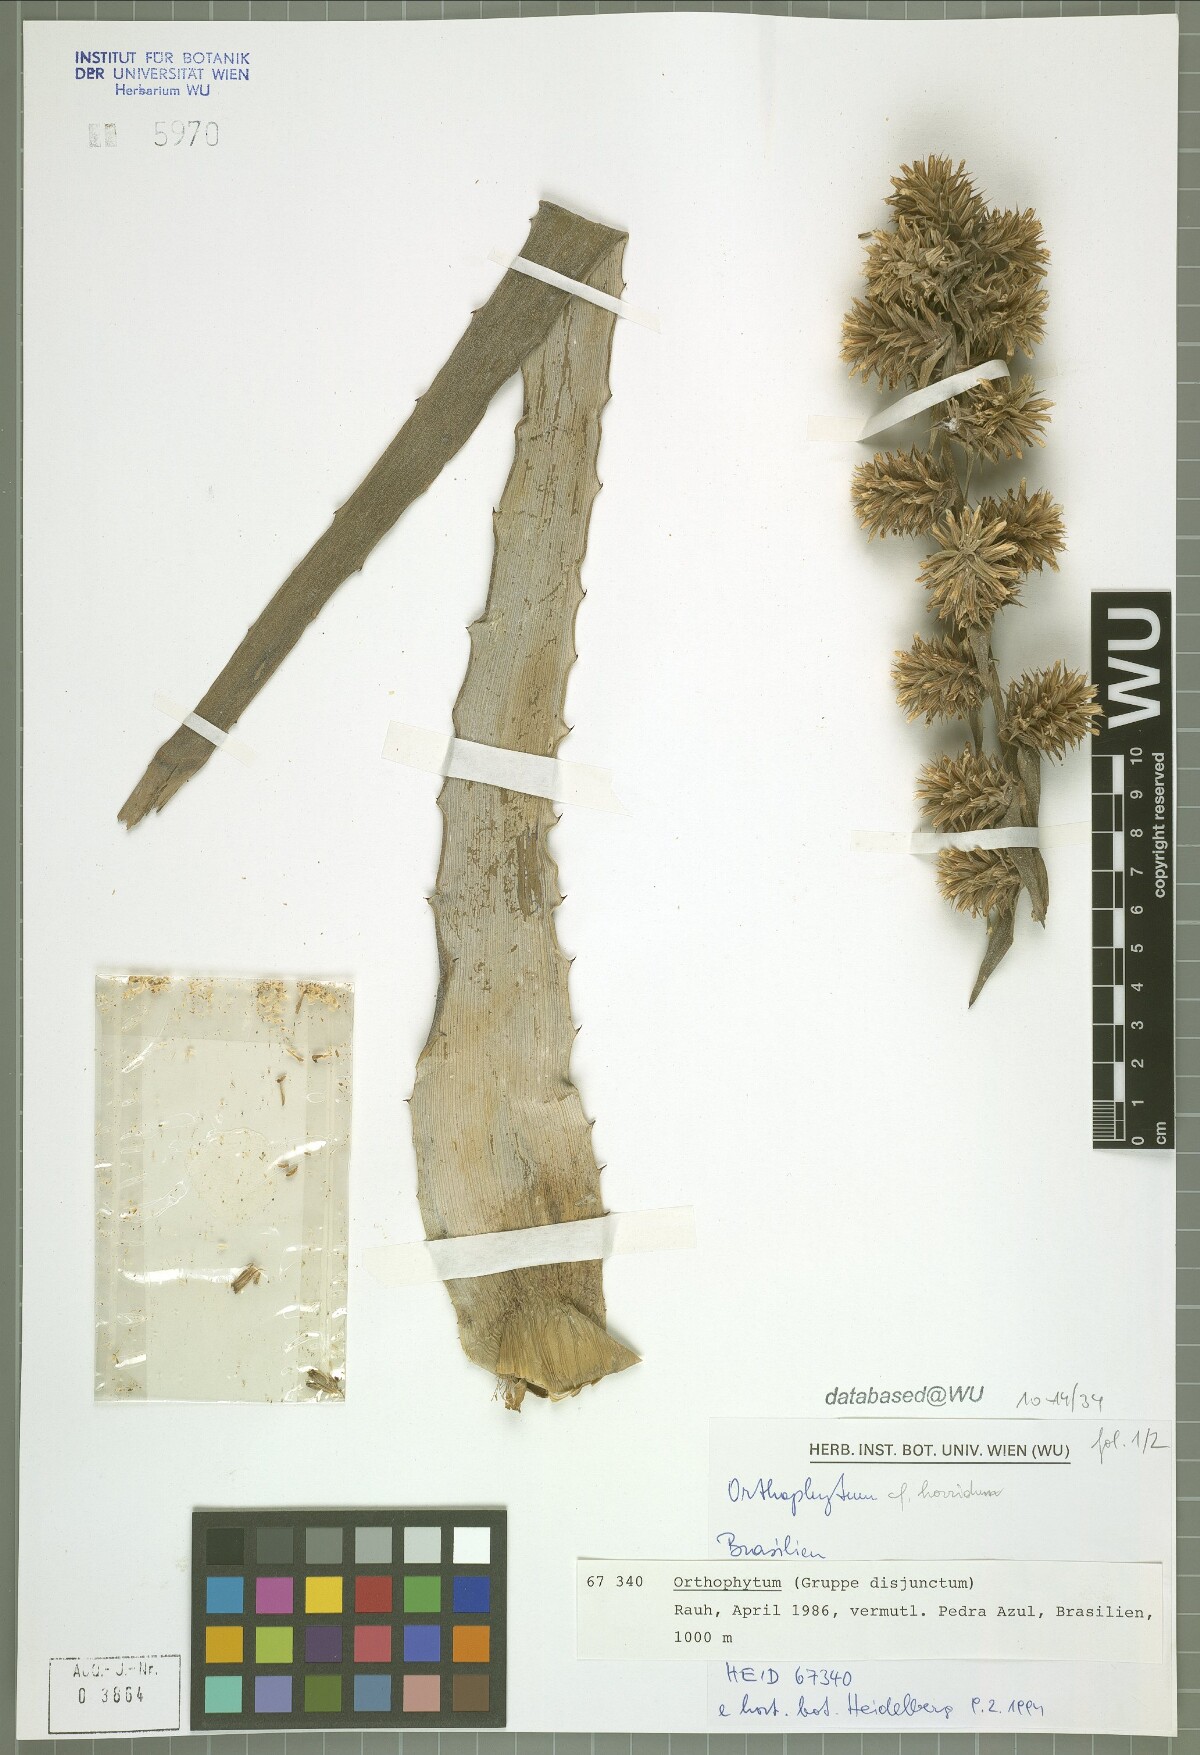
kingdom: Plantae
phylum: Tracheophyta
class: Liliopsida
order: Poales
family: Bromeliaceae
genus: Orthophytum
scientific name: Orthophytum horridum
